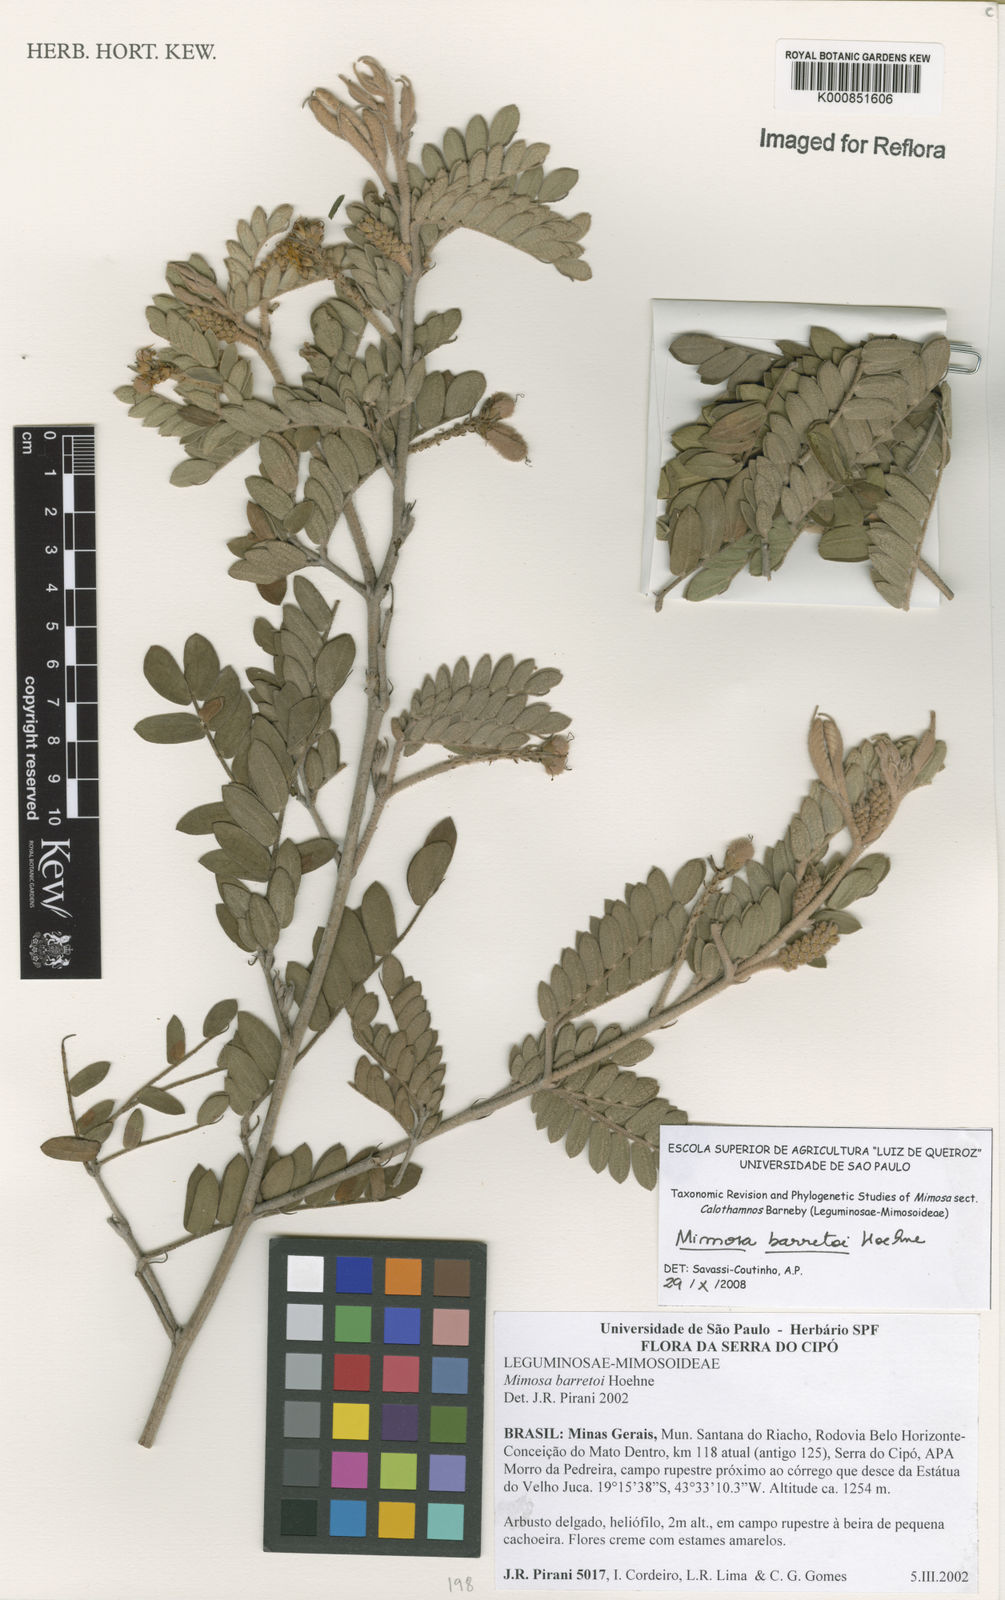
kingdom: Plantae
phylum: Tracheophyta
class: Magnoliopsida
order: Fabales
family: Fabaceae
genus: Mimosa
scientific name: Mimosa barretoi
